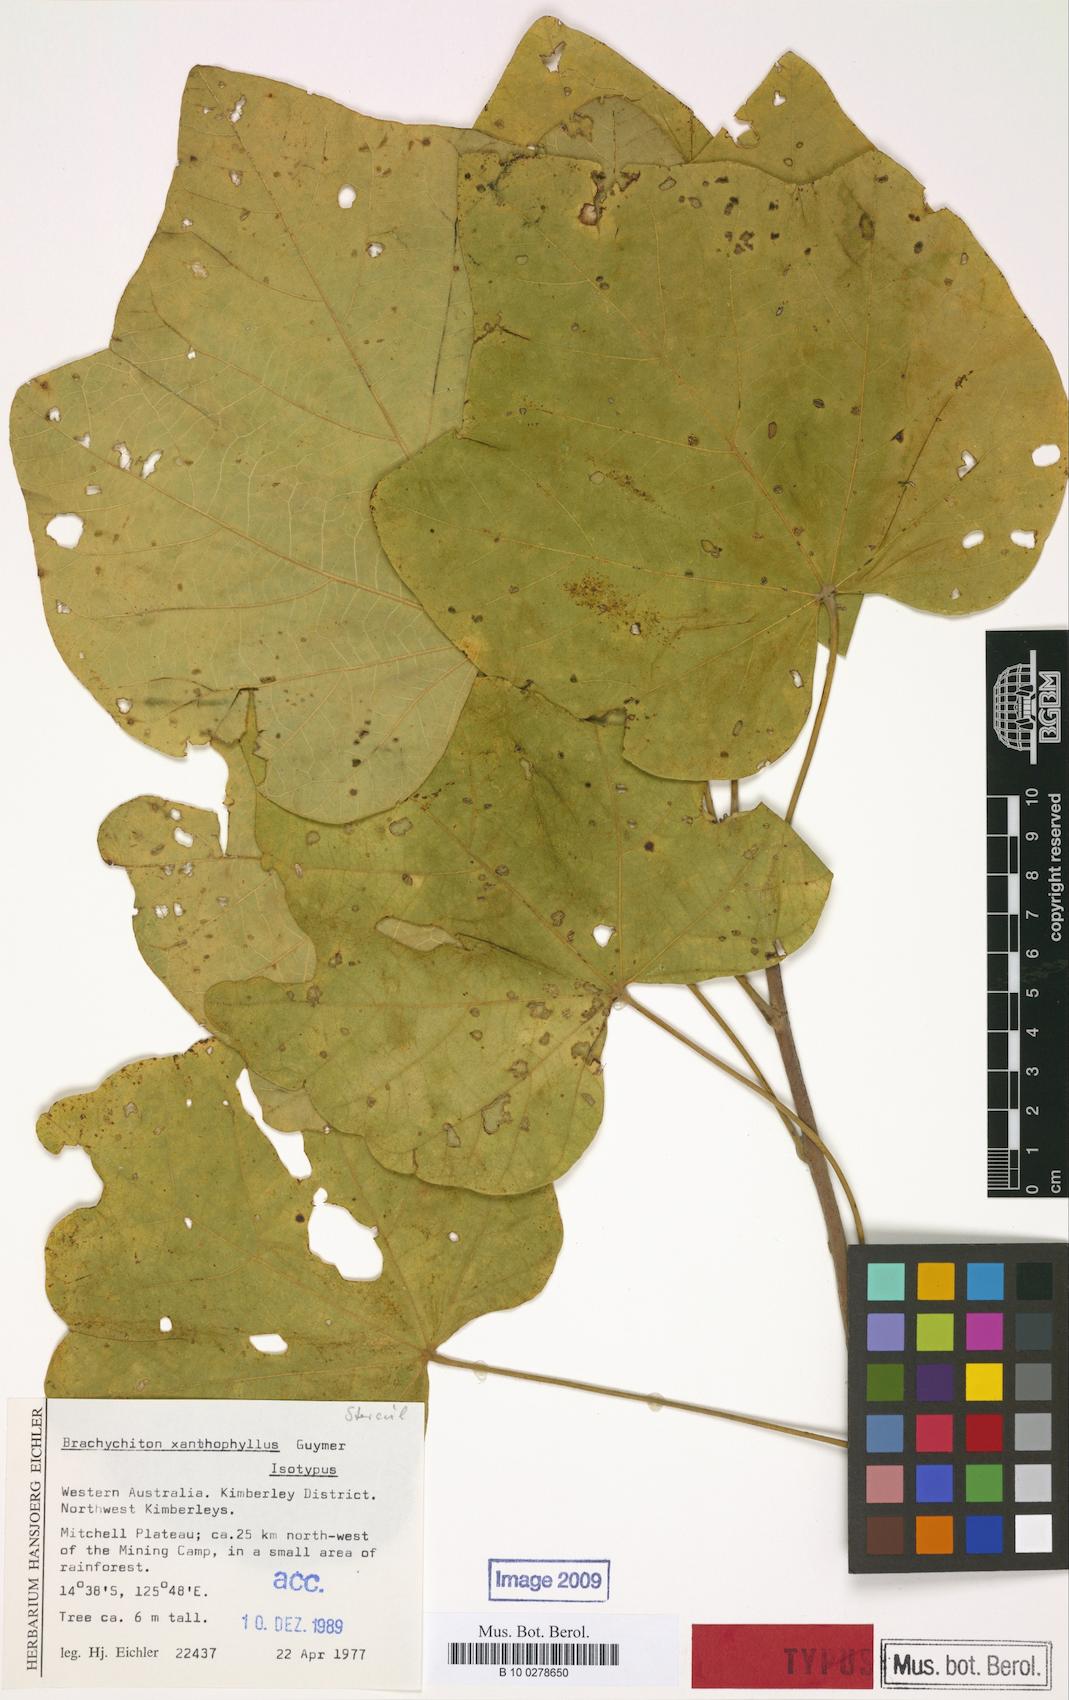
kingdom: Plantae
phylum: Tracheophyta
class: Magnoliopsida
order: Malvales
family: Malvaceae
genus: Brachychiton
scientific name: Brachychiton xanthophyllus
